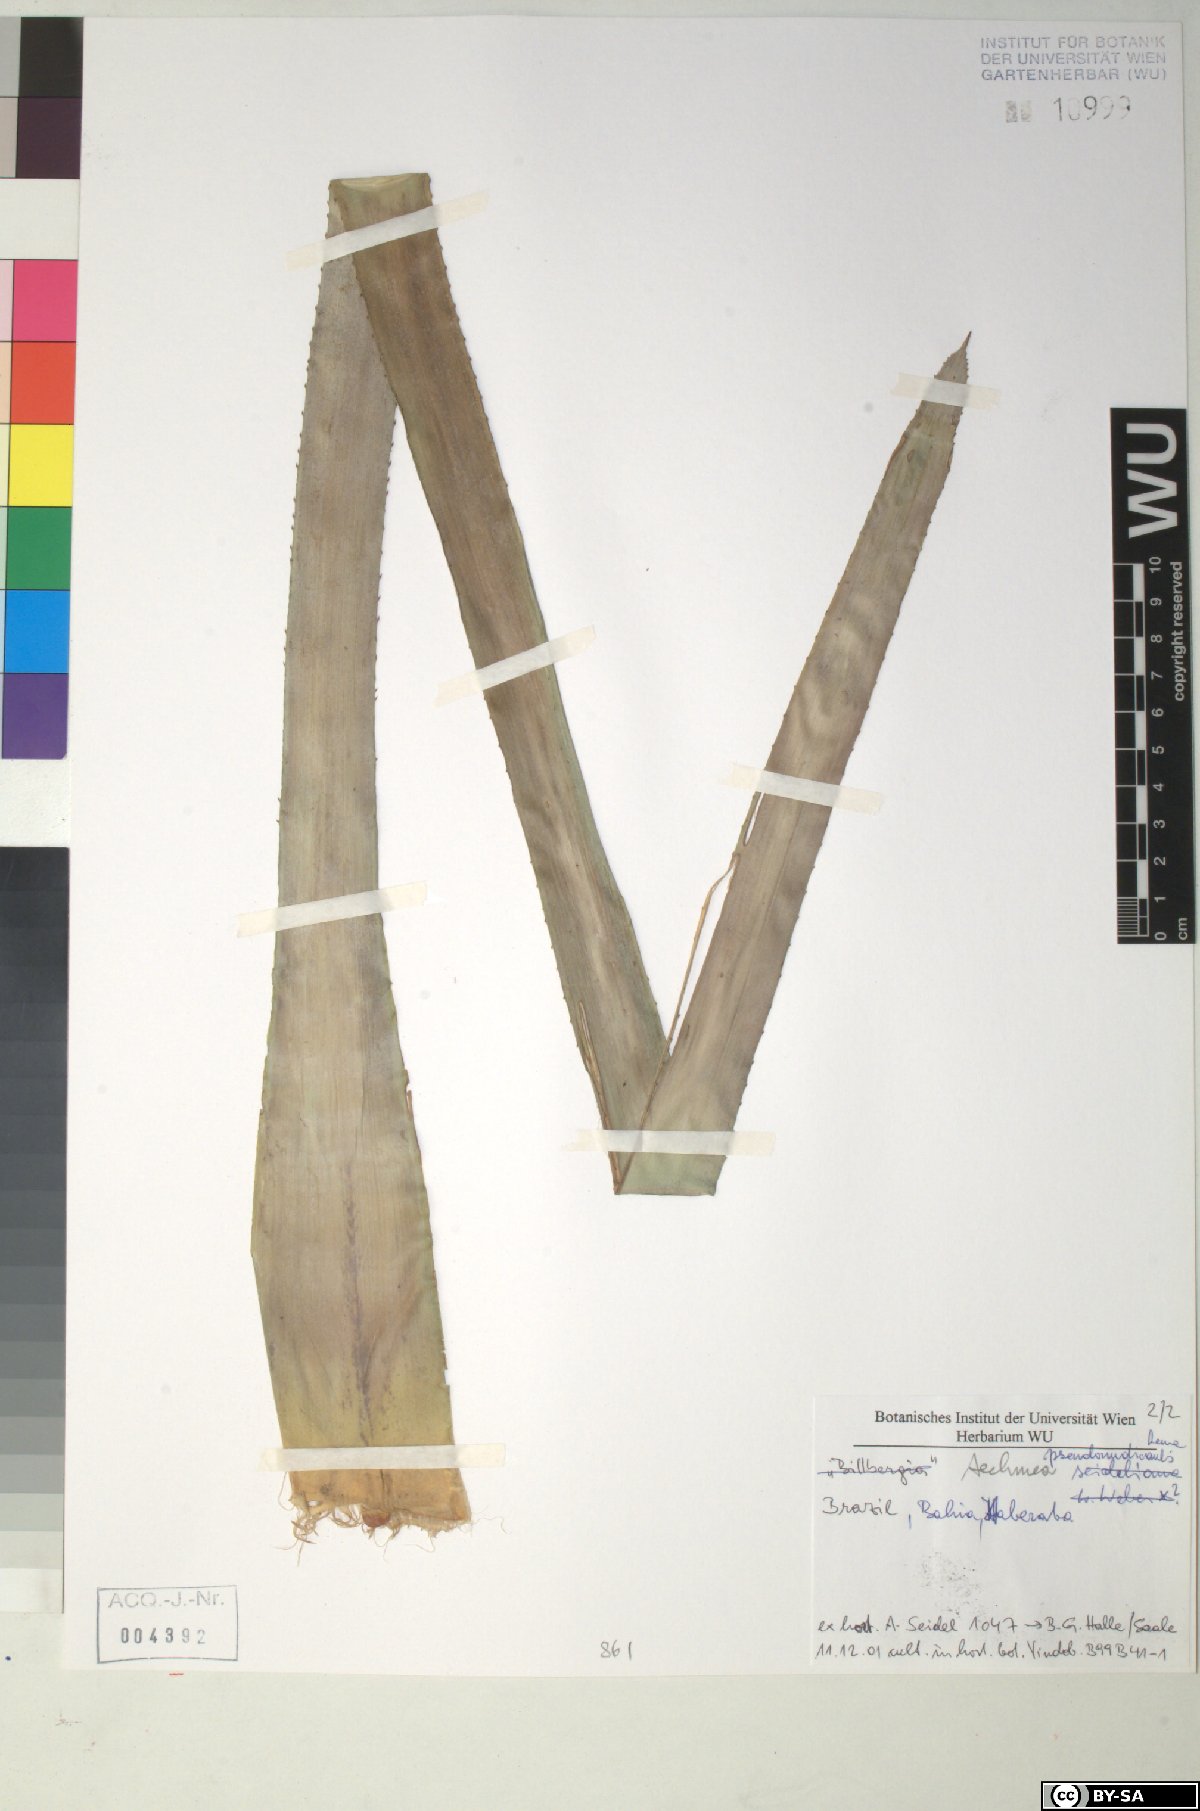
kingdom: Plantae
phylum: Tracheophyta
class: Liliopsida
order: Poales
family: Bromeliaceae
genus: Aechmea
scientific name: Aechmea
